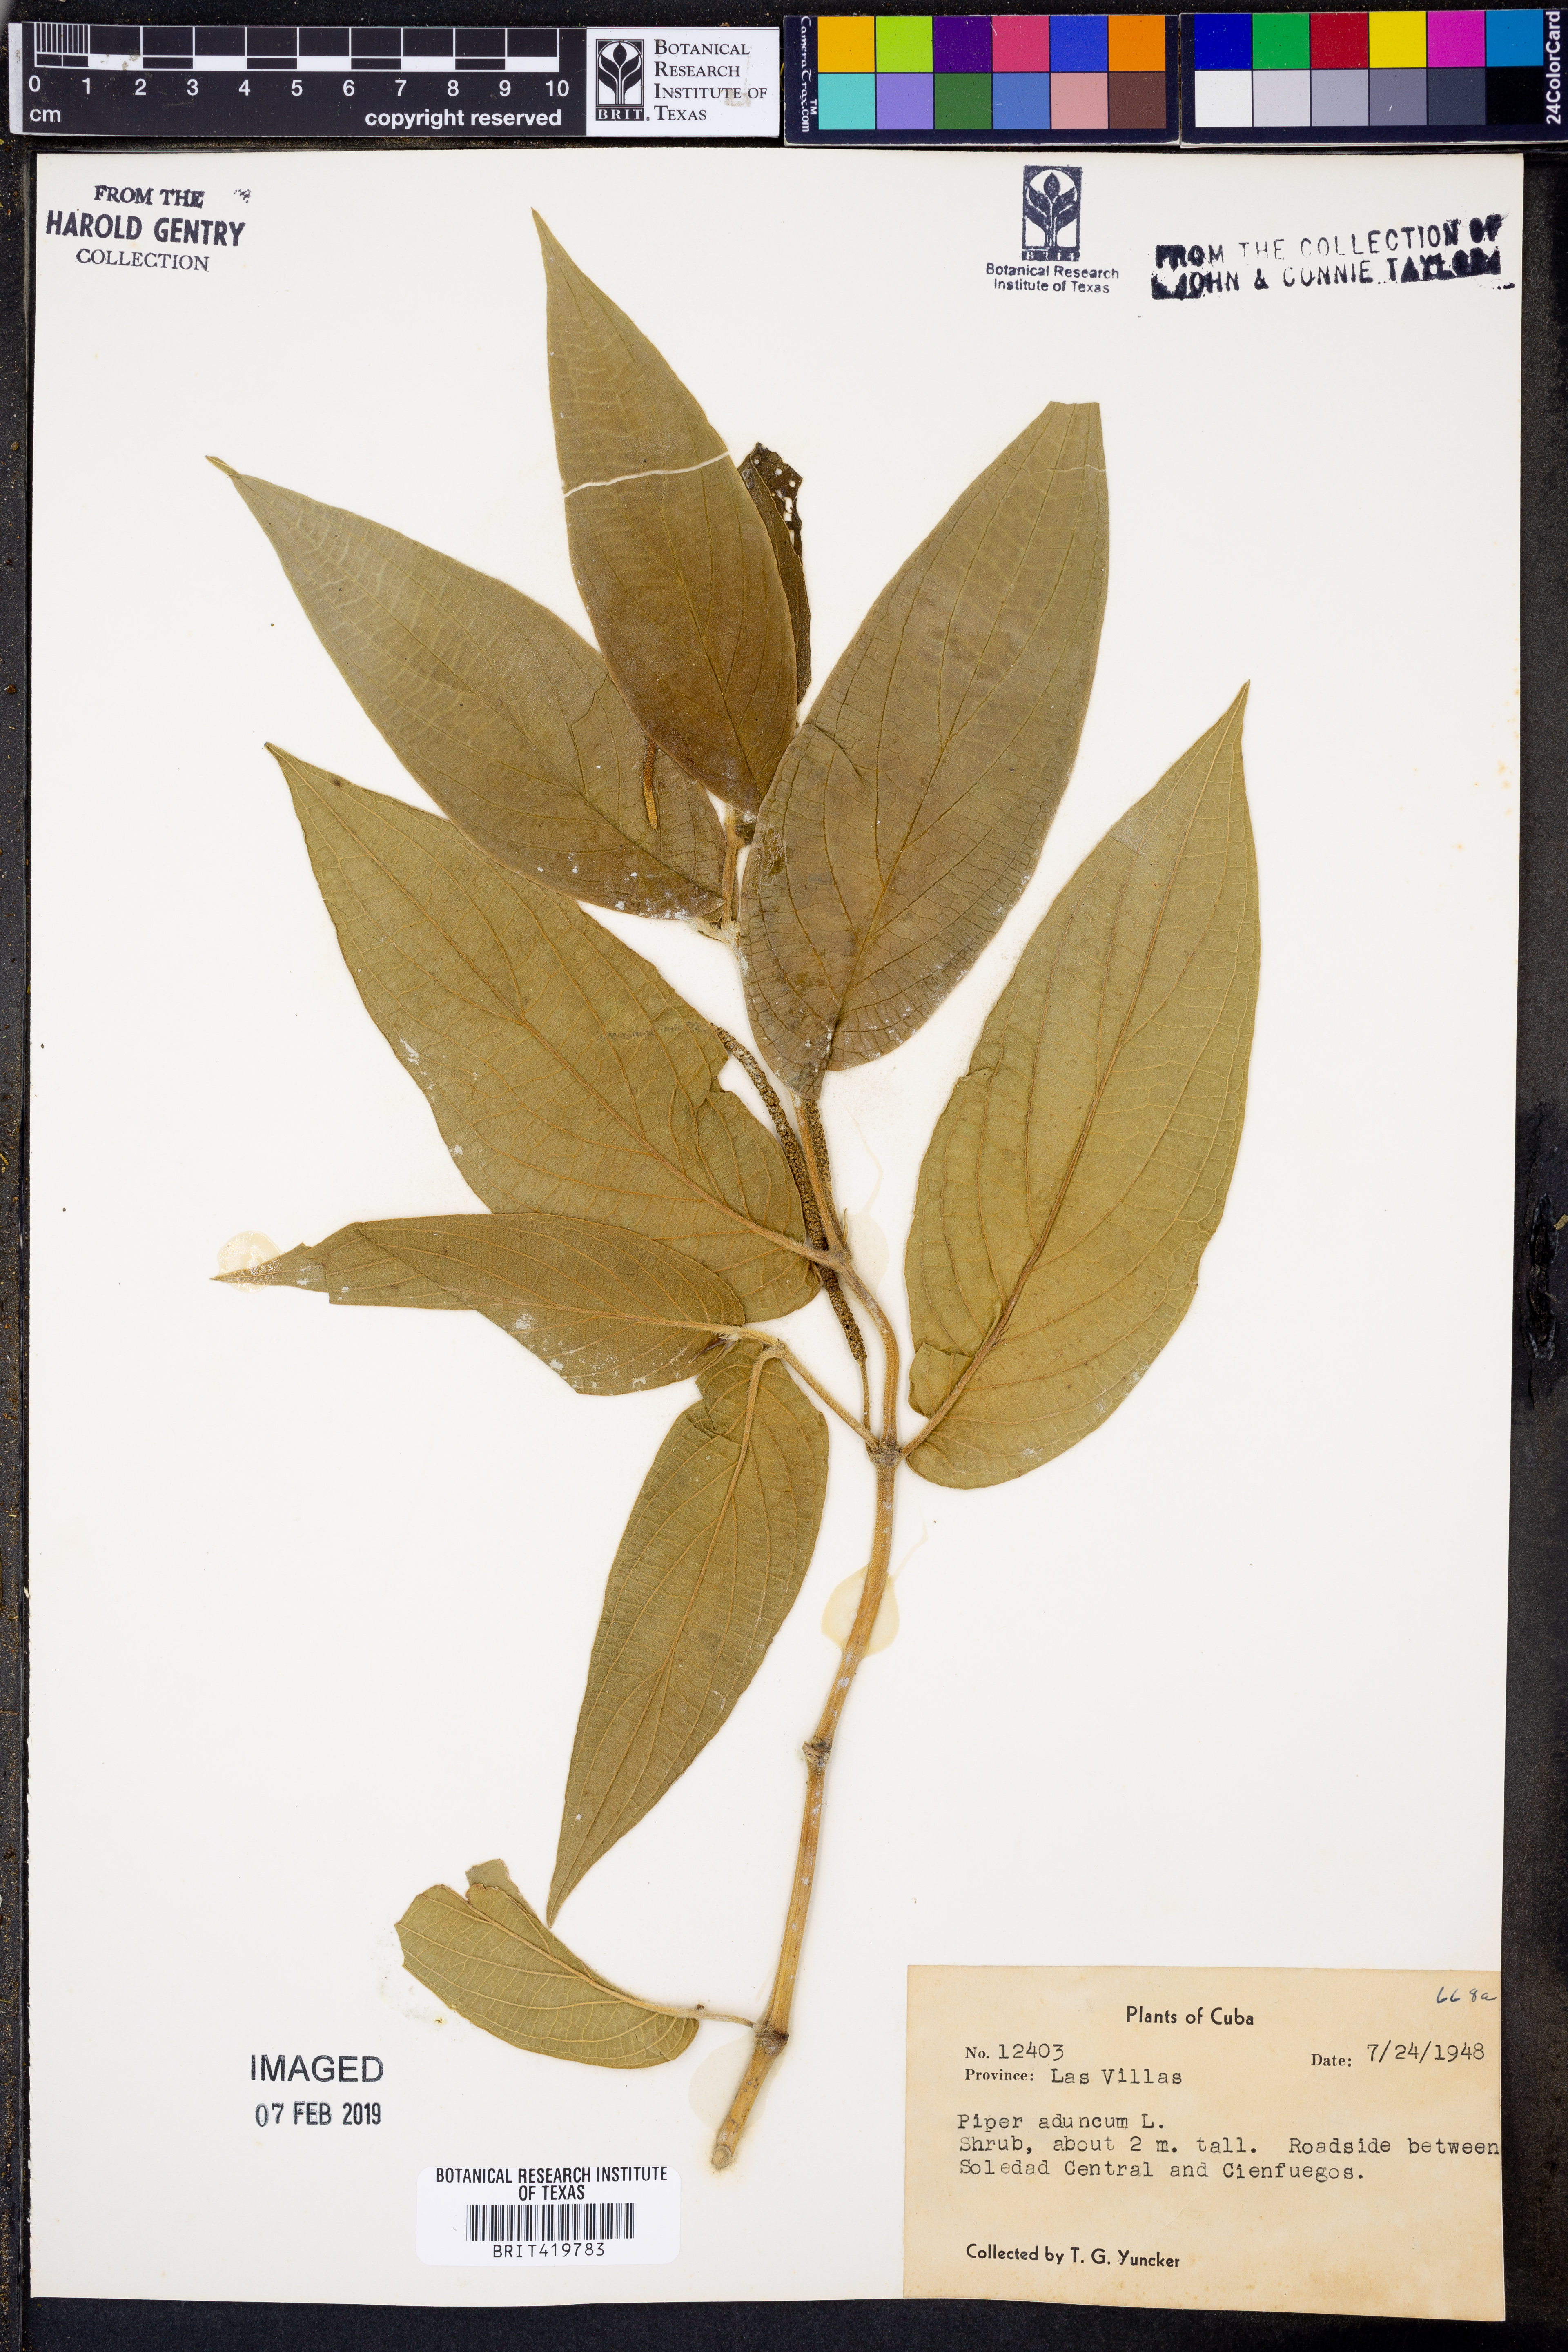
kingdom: Plantae
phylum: Tracheophyta
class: Magnoliopsida
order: Piperales
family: Piperaceae
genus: Piper
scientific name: Piper aduncum
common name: Spiked pepper
